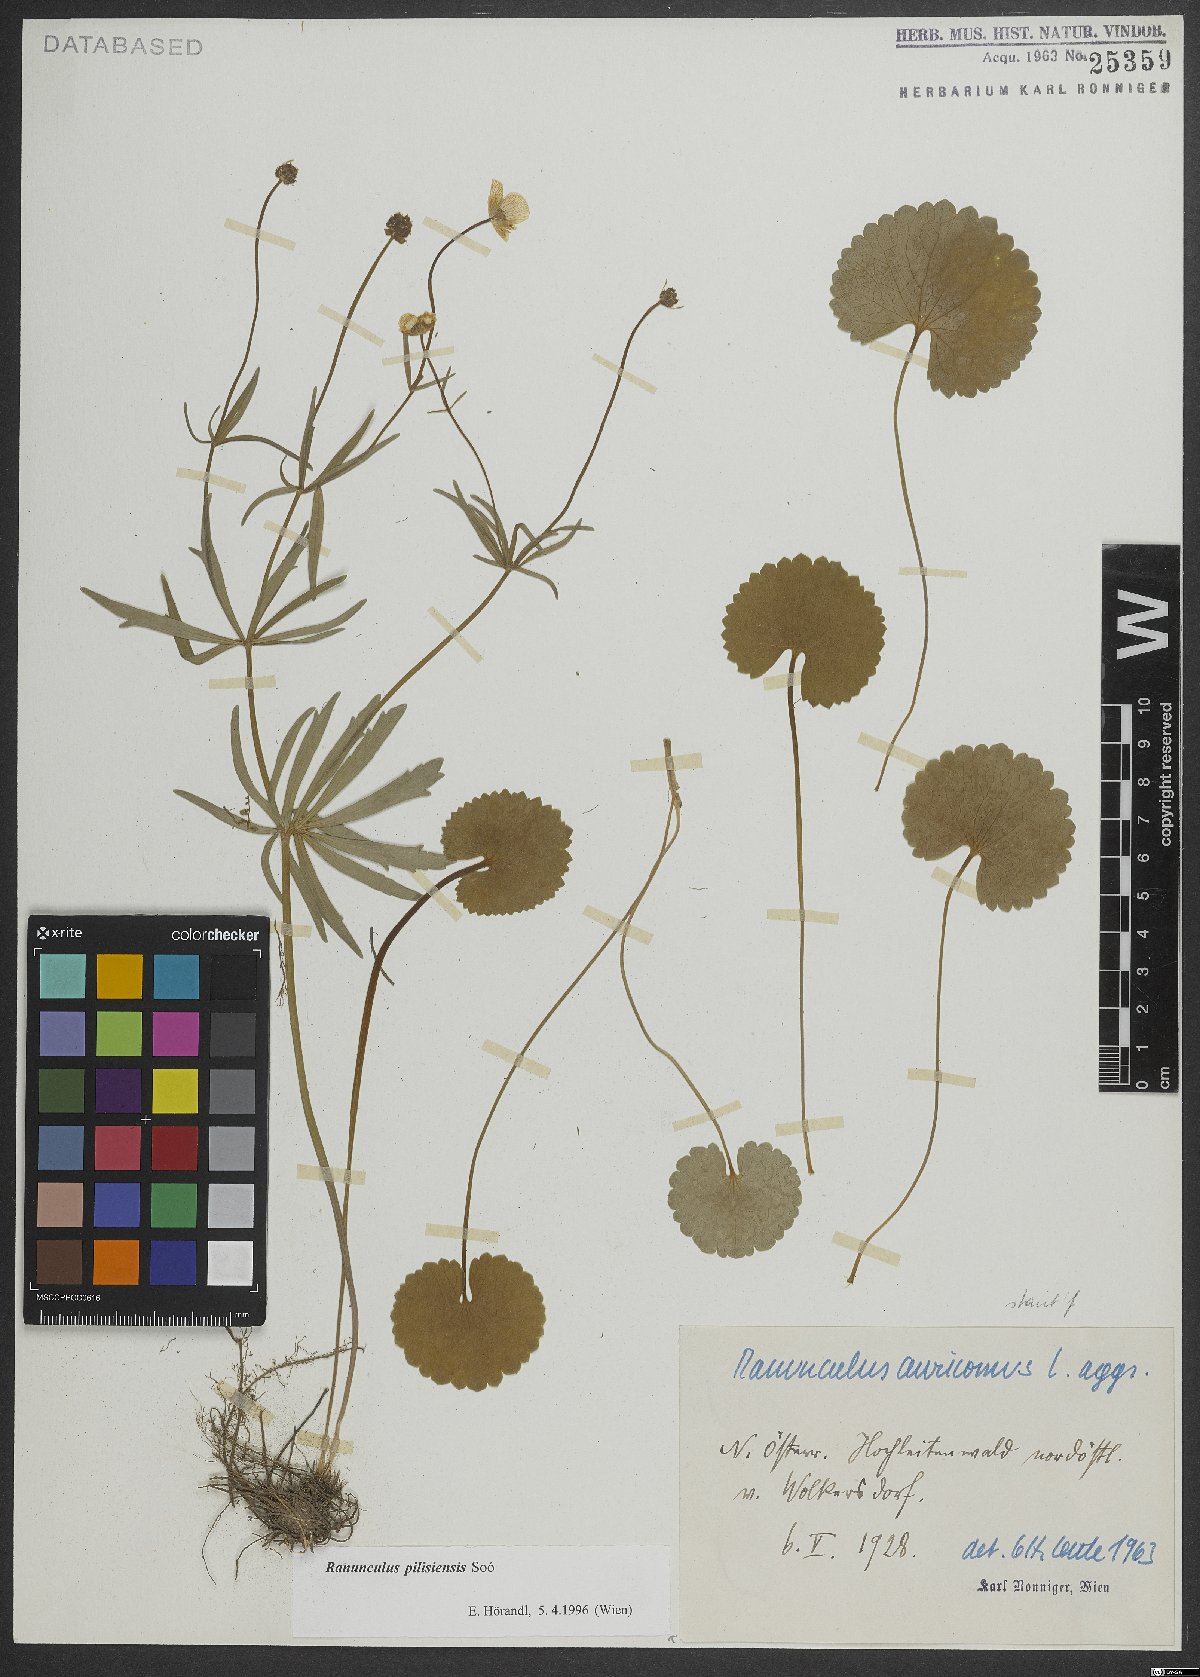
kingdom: Plantae
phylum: Tracheophyta
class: Magnoliopsida
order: Ranunculales
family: Ranunculaceae
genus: Ranunculus
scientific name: Ranunculus pilisiensis
